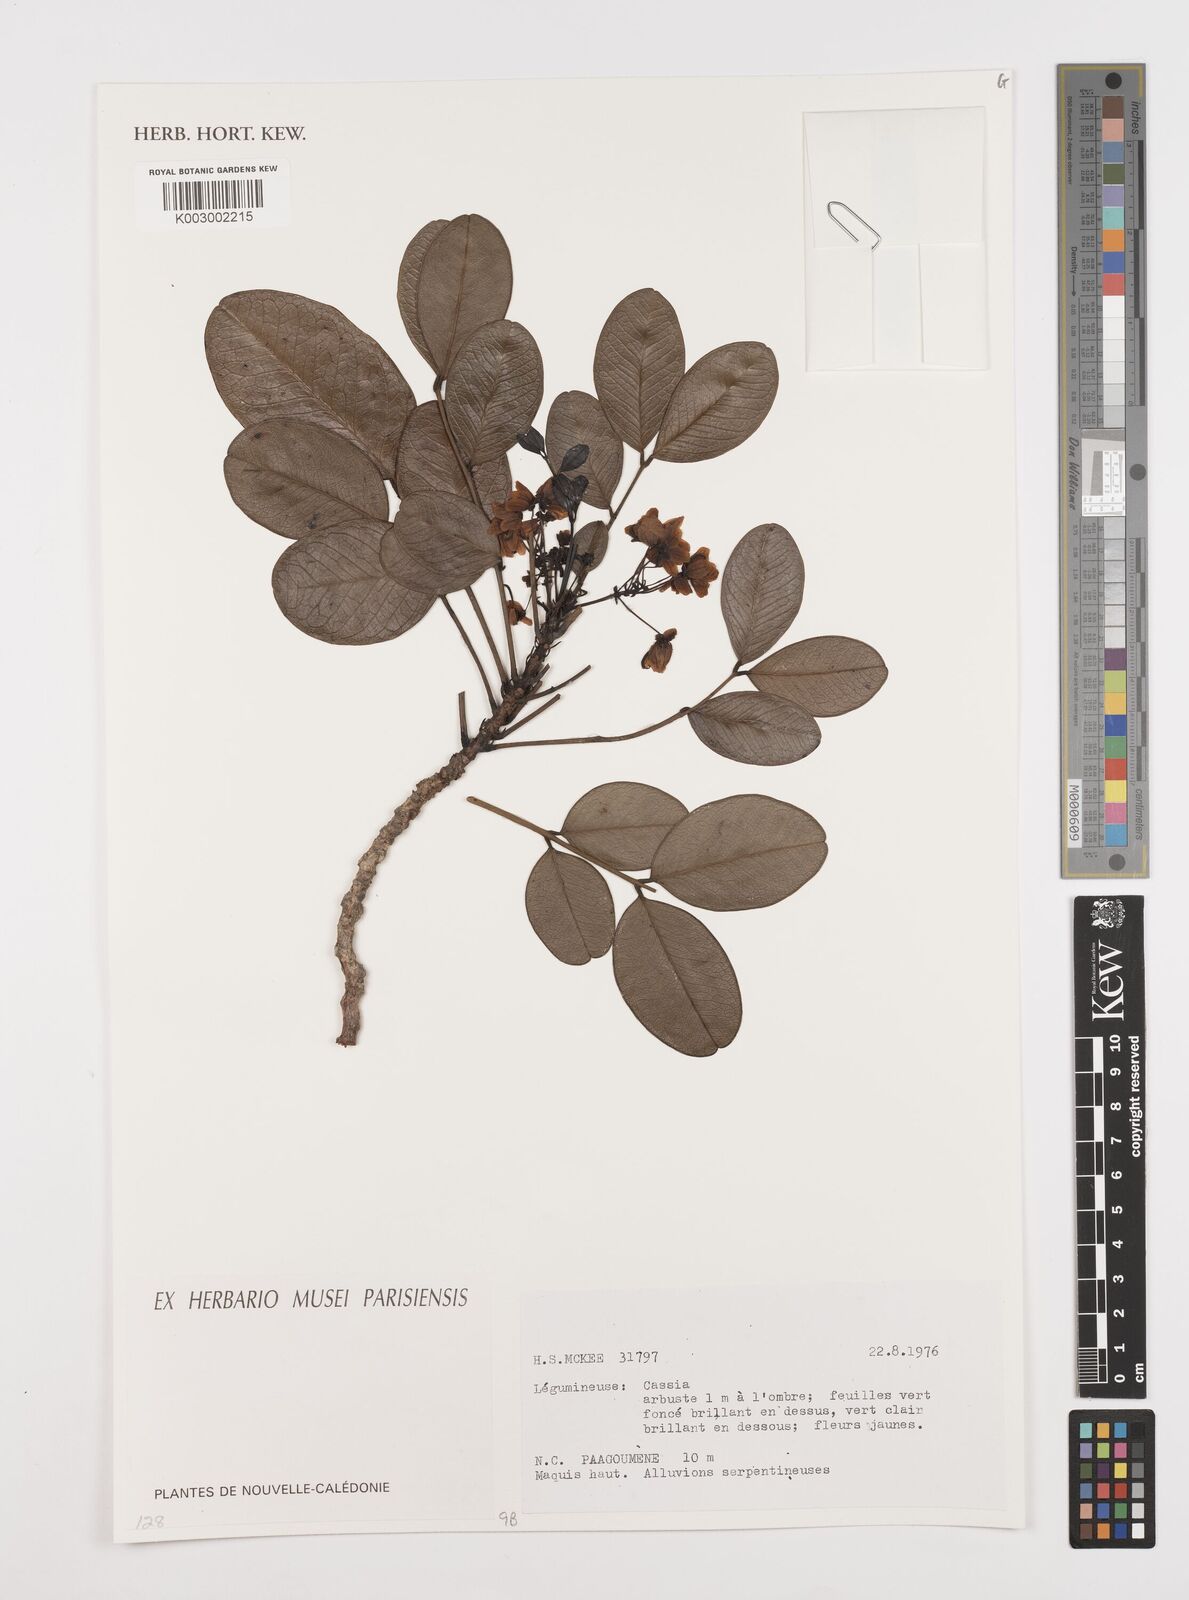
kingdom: Plantae
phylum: Tracheophyta
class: Magnoliopsida
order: Fabales
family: Fabaceae
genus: Cassia
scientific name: Cassia
